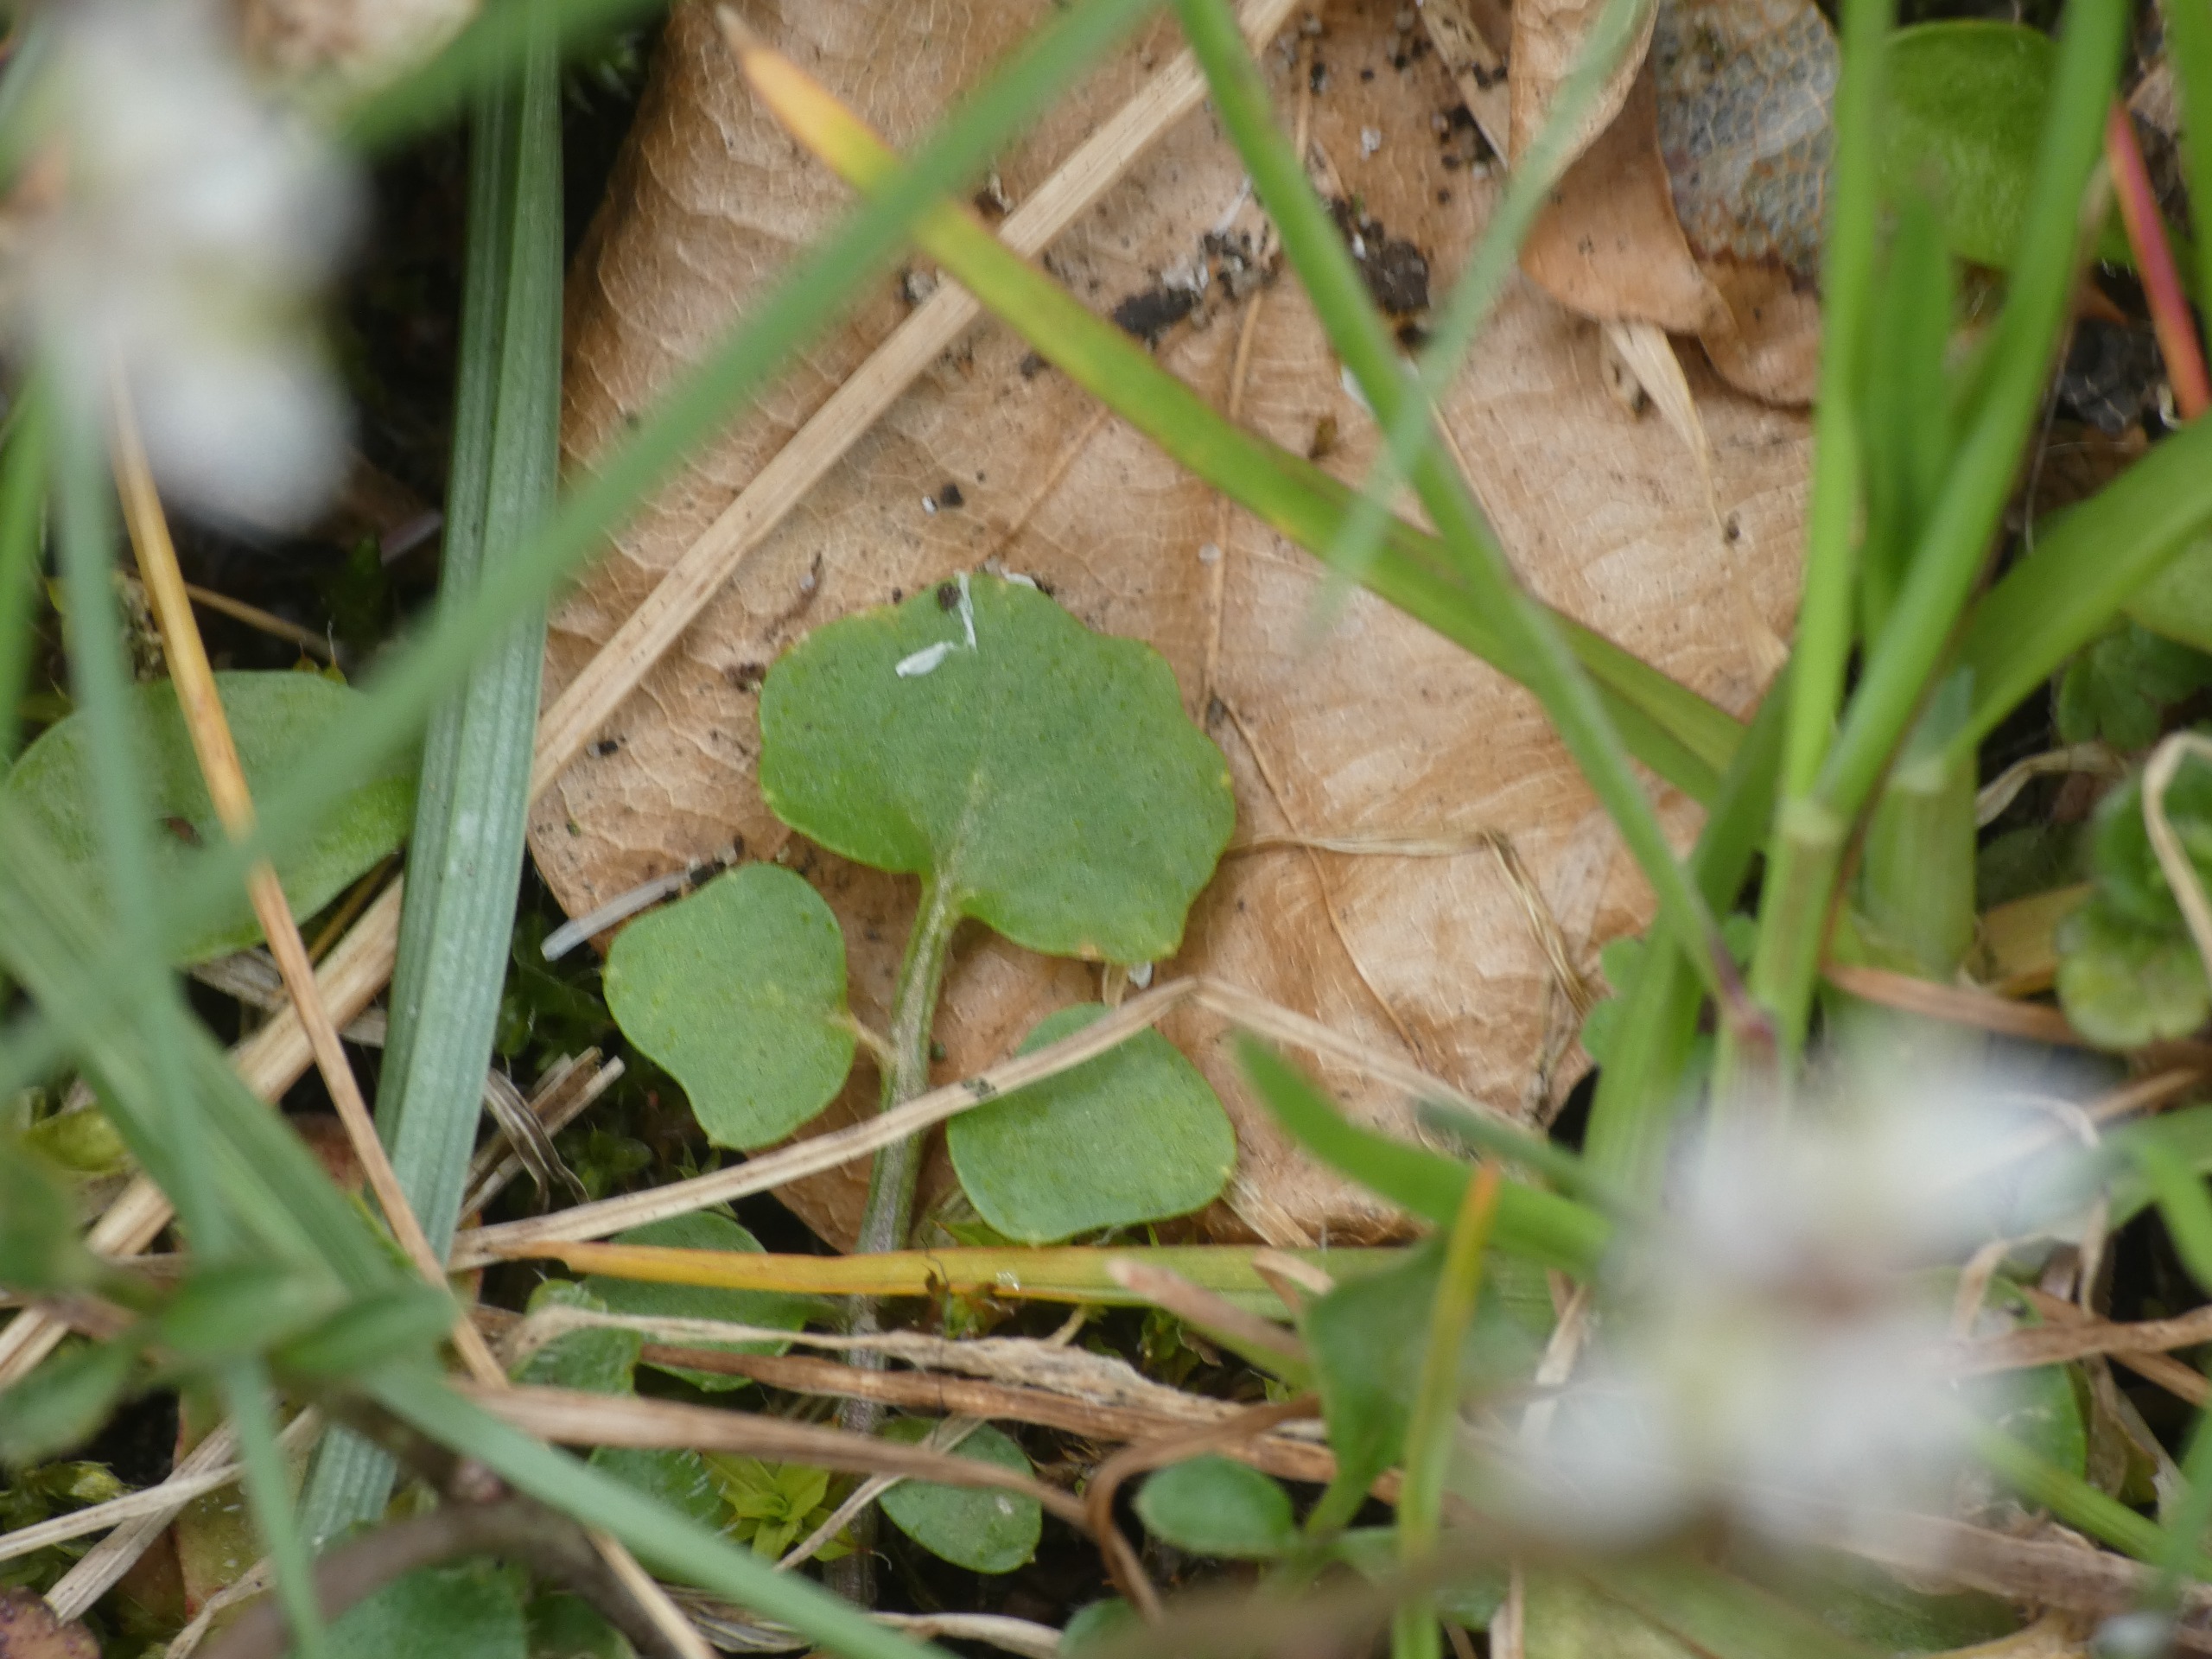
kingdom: Plantae
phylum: Tracheophyta
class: Magnoliopsida
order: Brassicales
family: Brassicaceae
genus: Cardamine
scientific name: Cardamine hirsuta
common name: Roset-springklap
